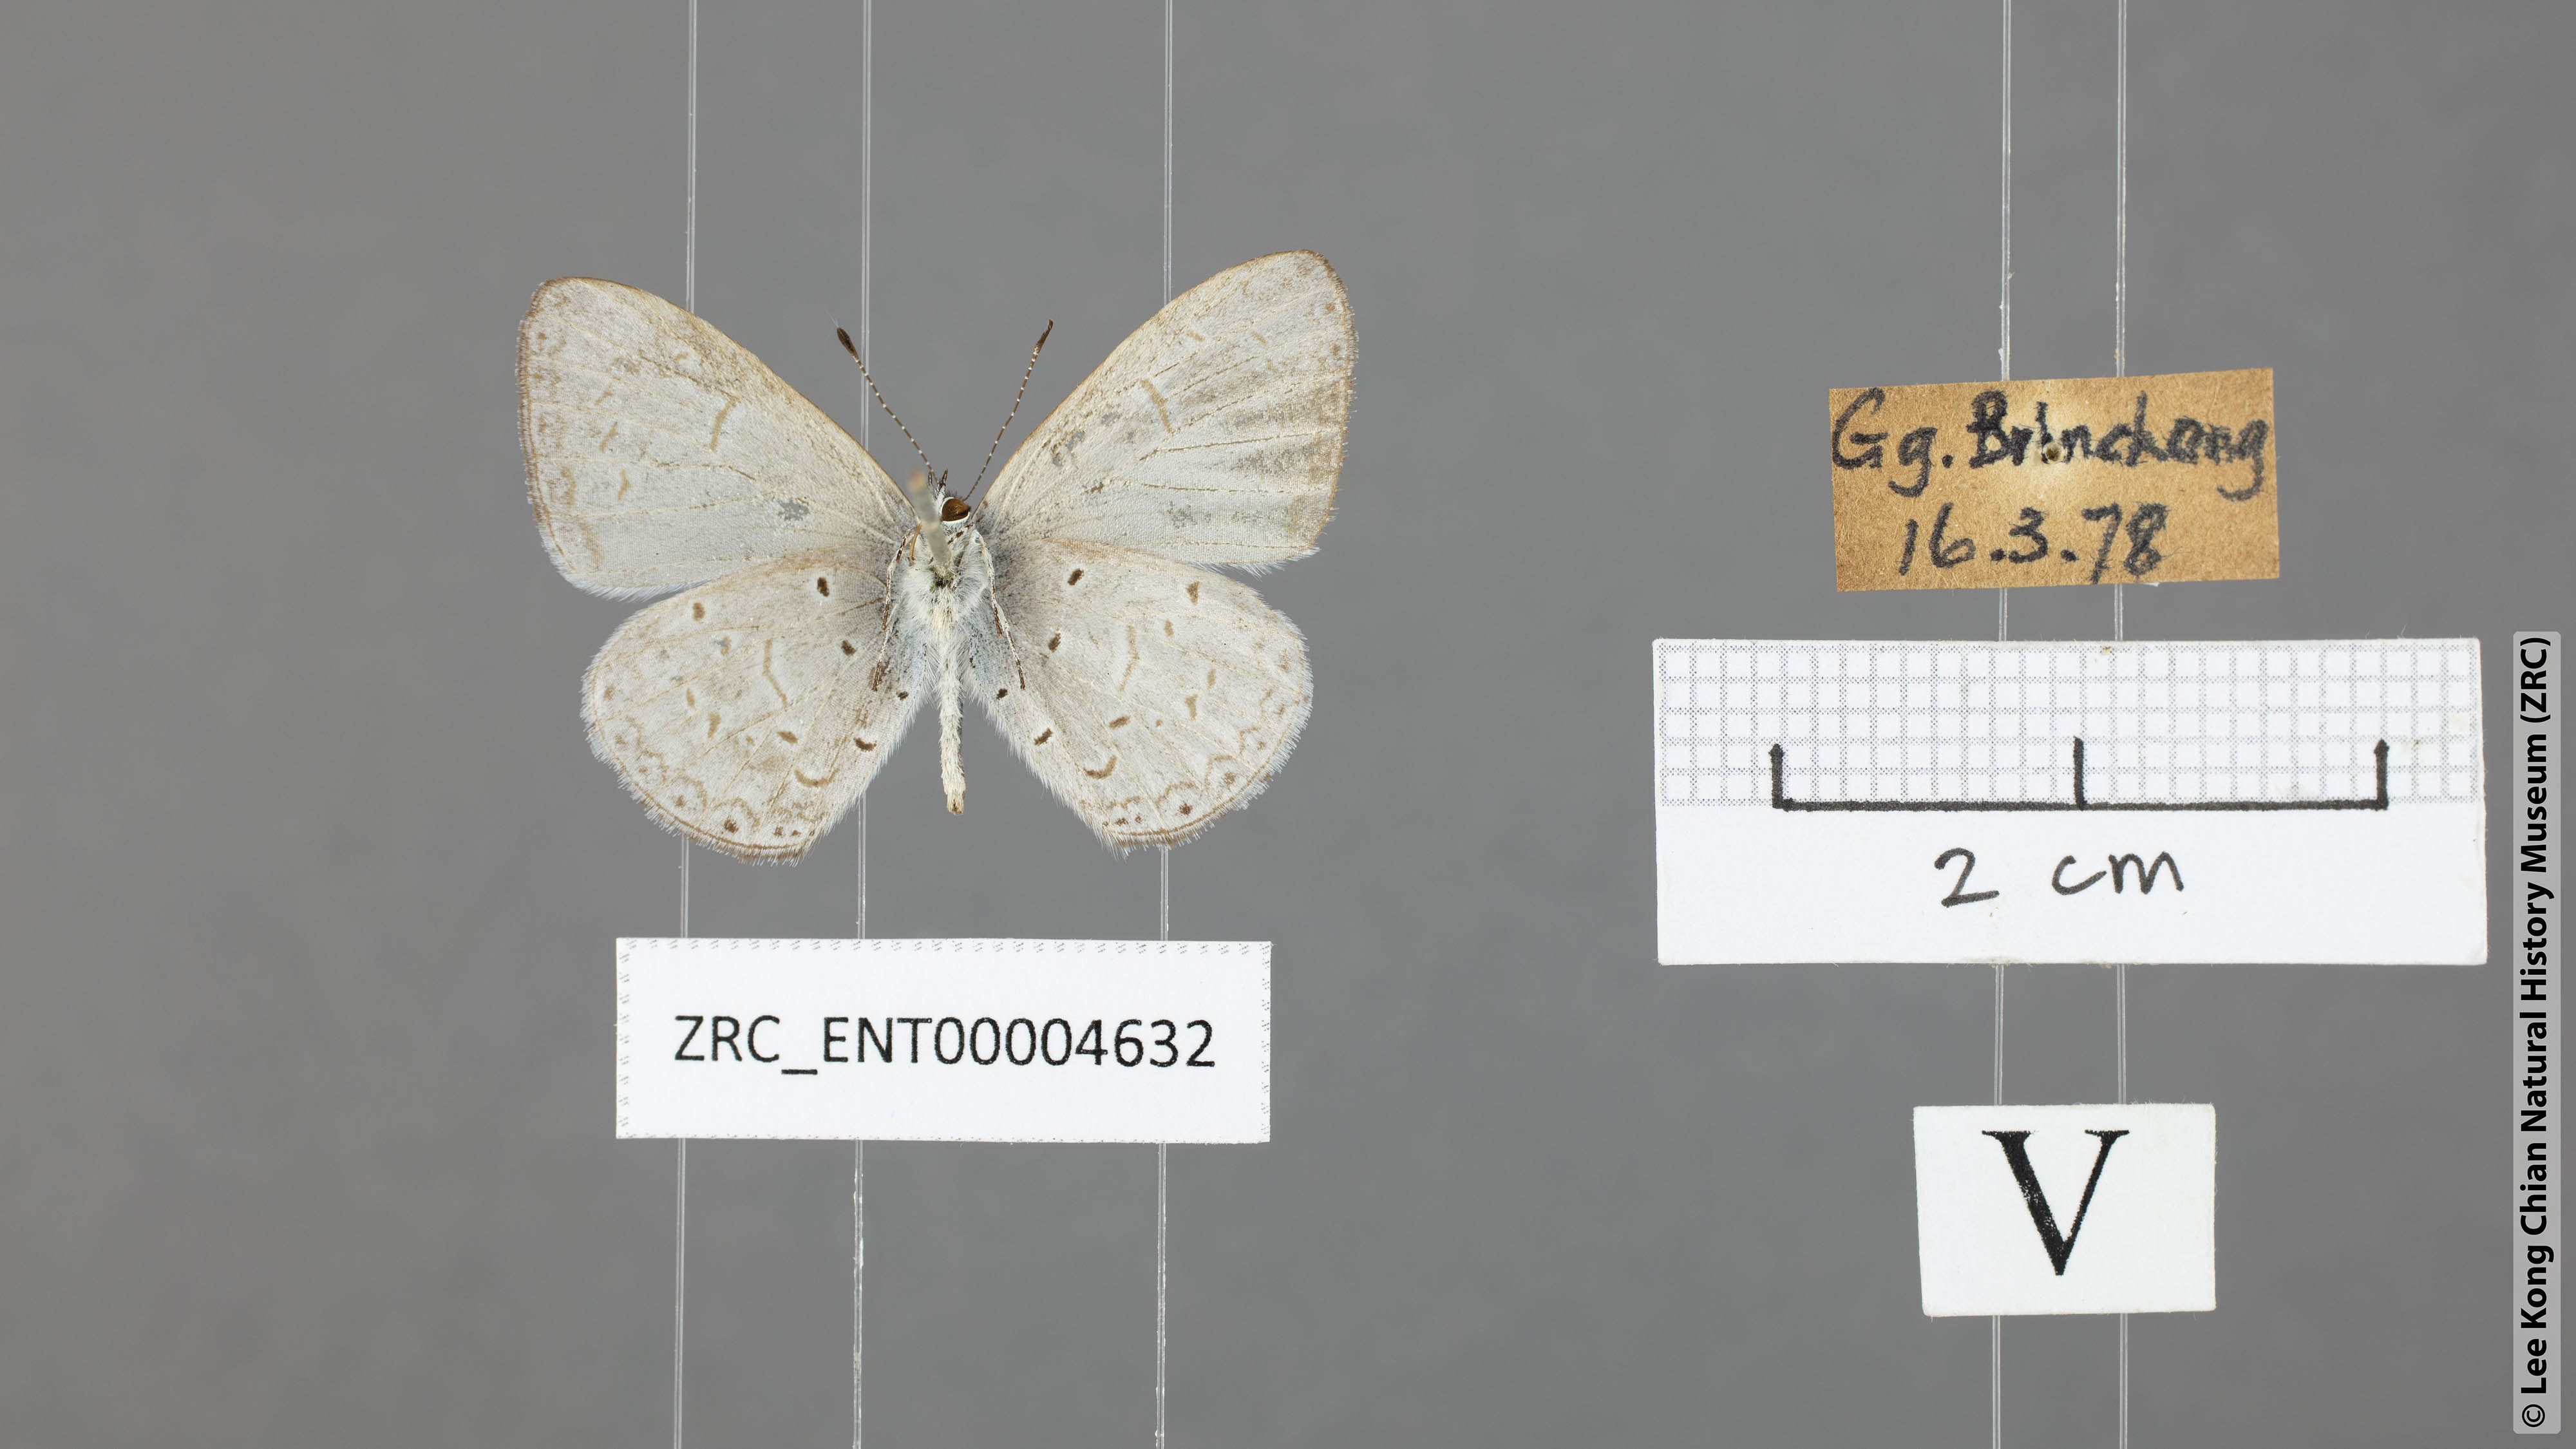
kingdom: Animalia
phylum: Arthropoda
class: Insecta
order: Lepidoptera
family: Lycaenidae
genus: Udara
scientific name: Udara
